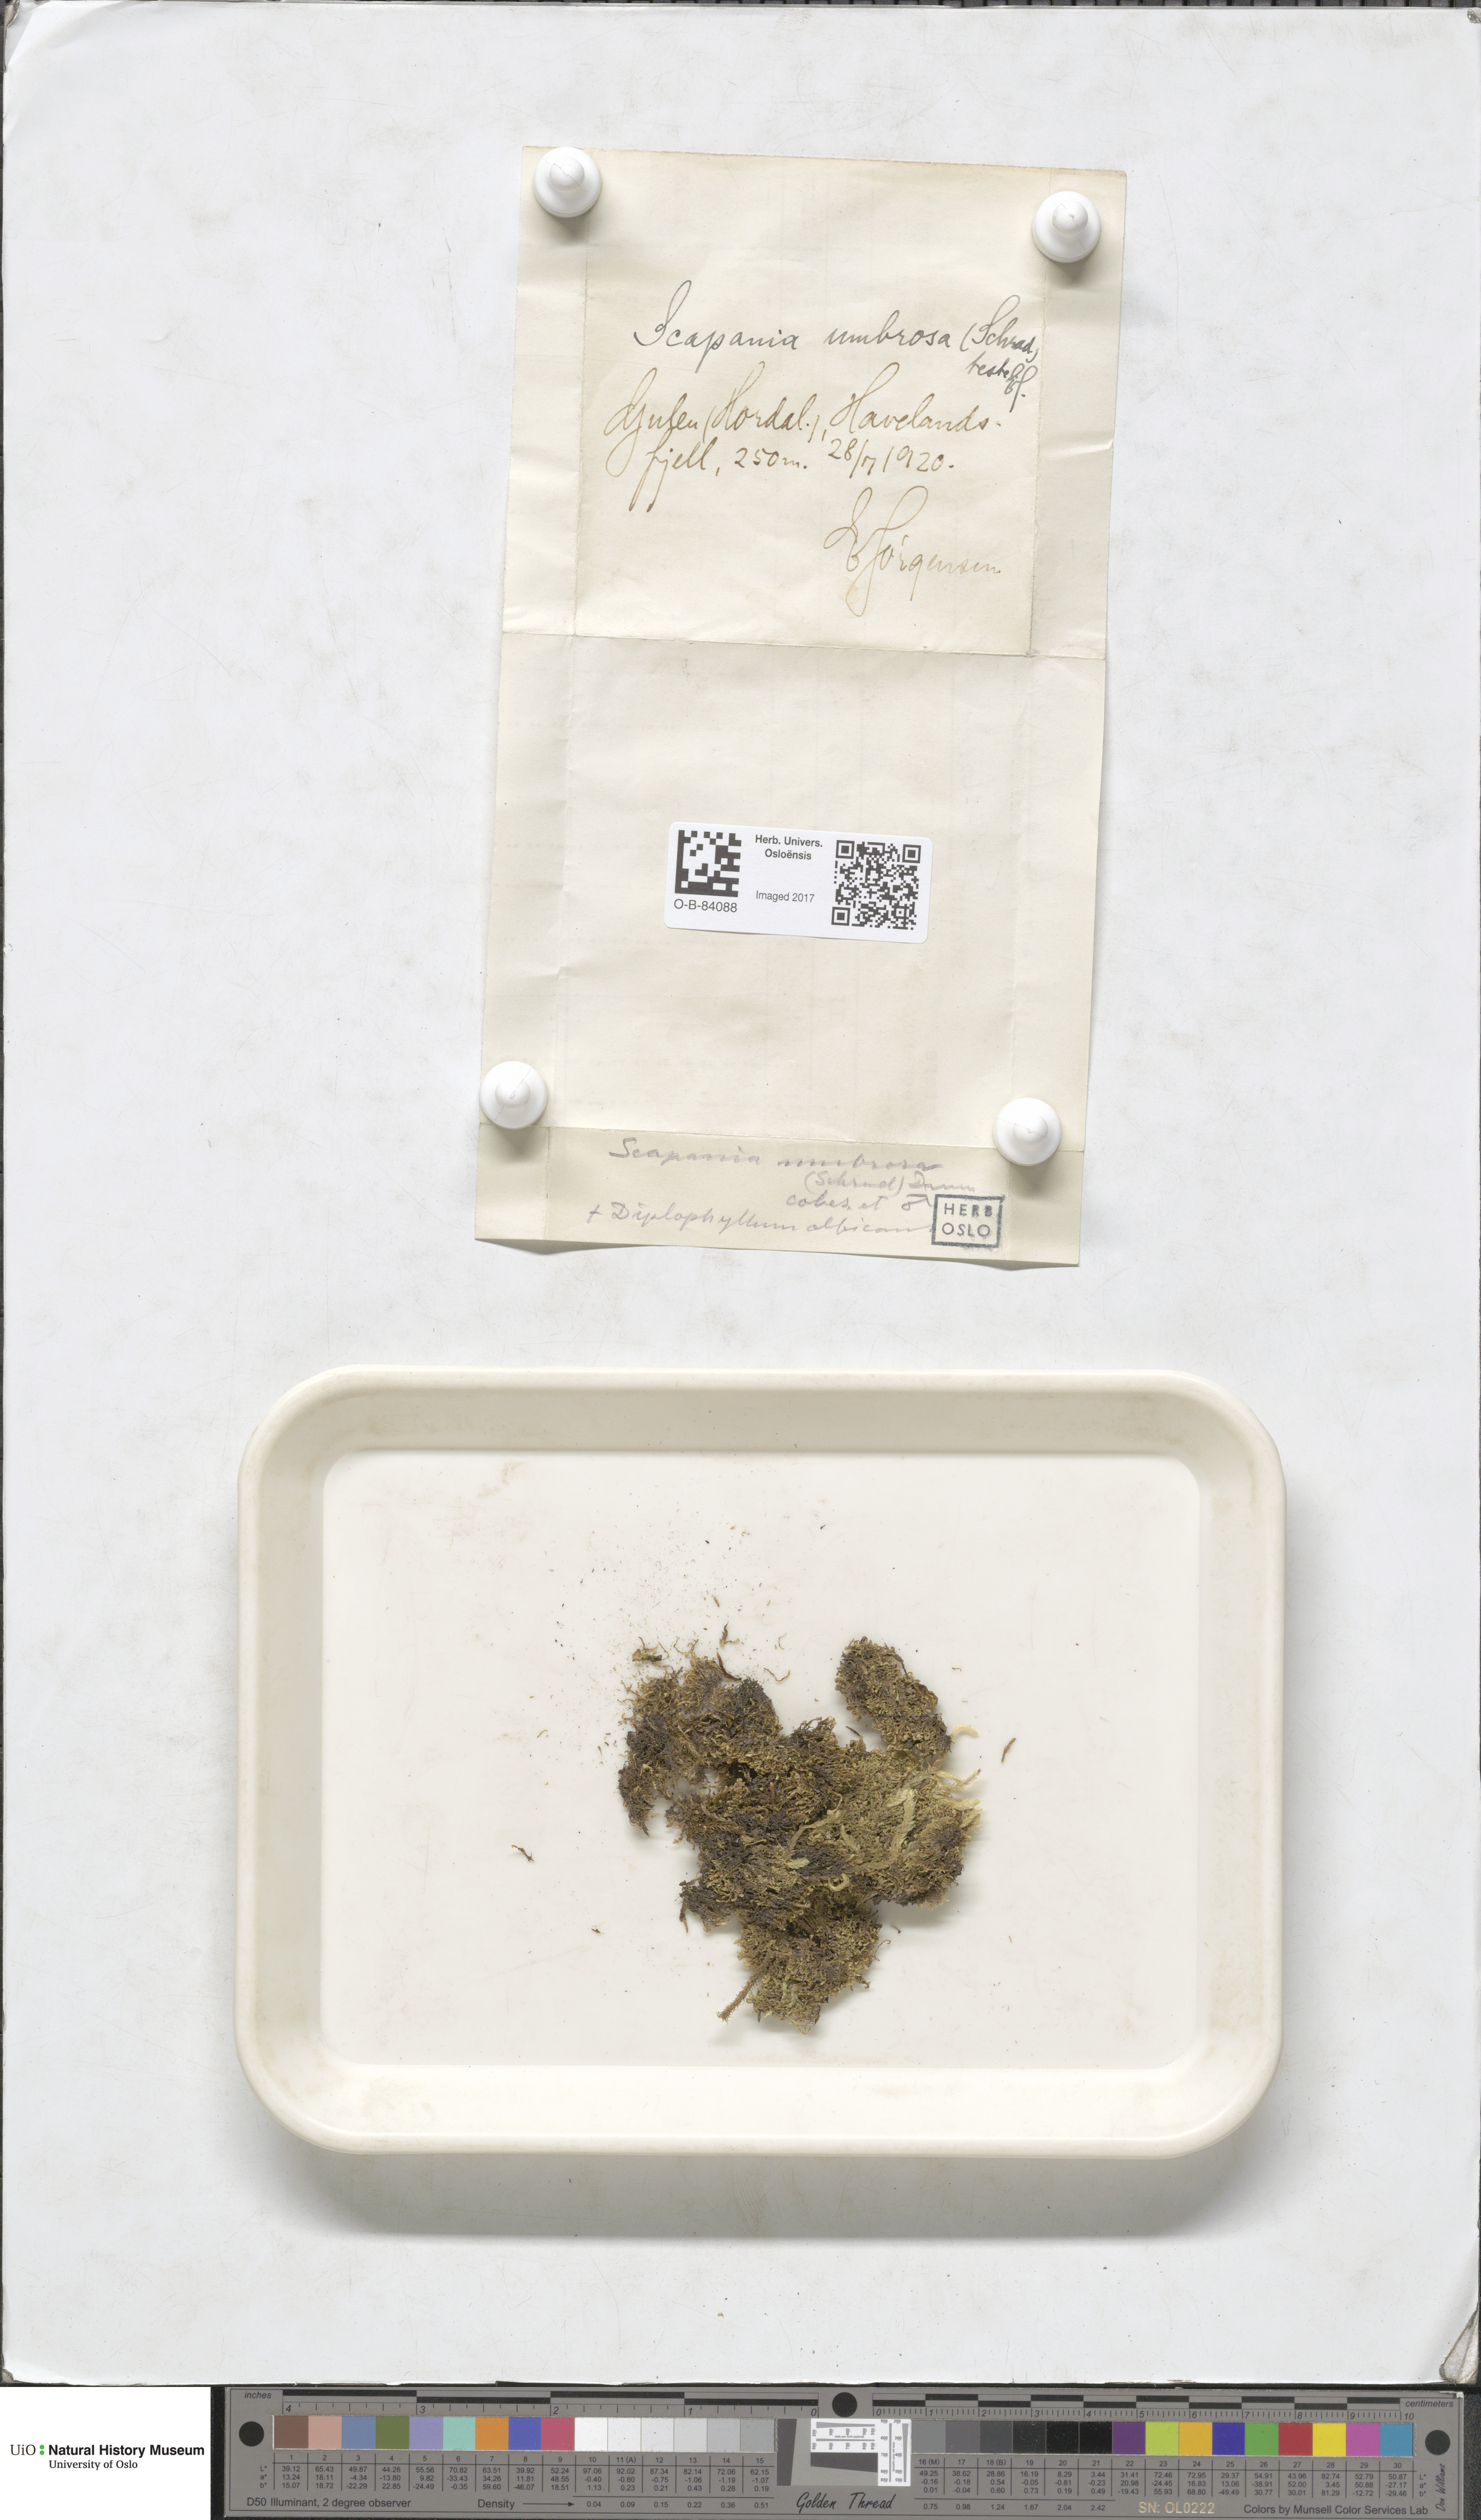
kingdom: Plantae
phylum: Marchantiophyta
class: Jungermanniopsida
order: Jungermanniales
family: Scapaniaceae
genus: Scapania
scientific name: Scapania umbrosa
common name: Shady earwort
